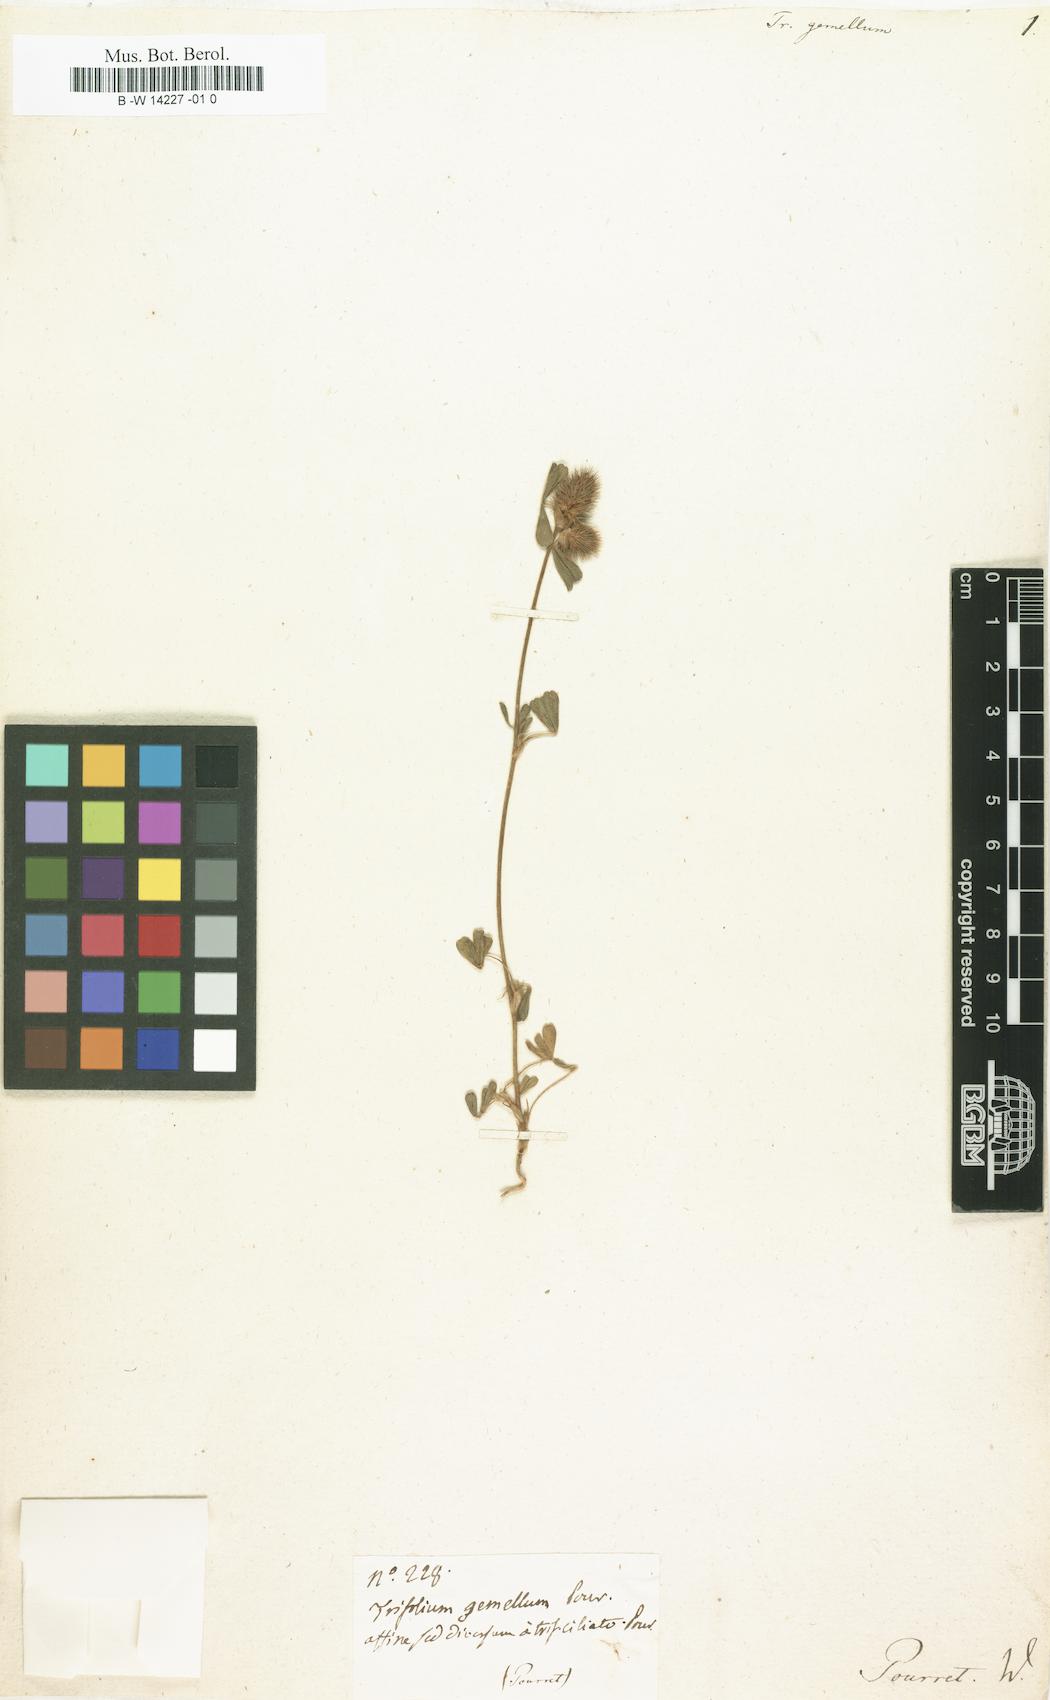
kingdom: Plantae
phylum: Tracheophyta
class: Magnoliopsida
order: Fabales
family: Fabaceae
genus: Trifolium
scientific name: Trifolium gemellum
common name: Spanish clover
